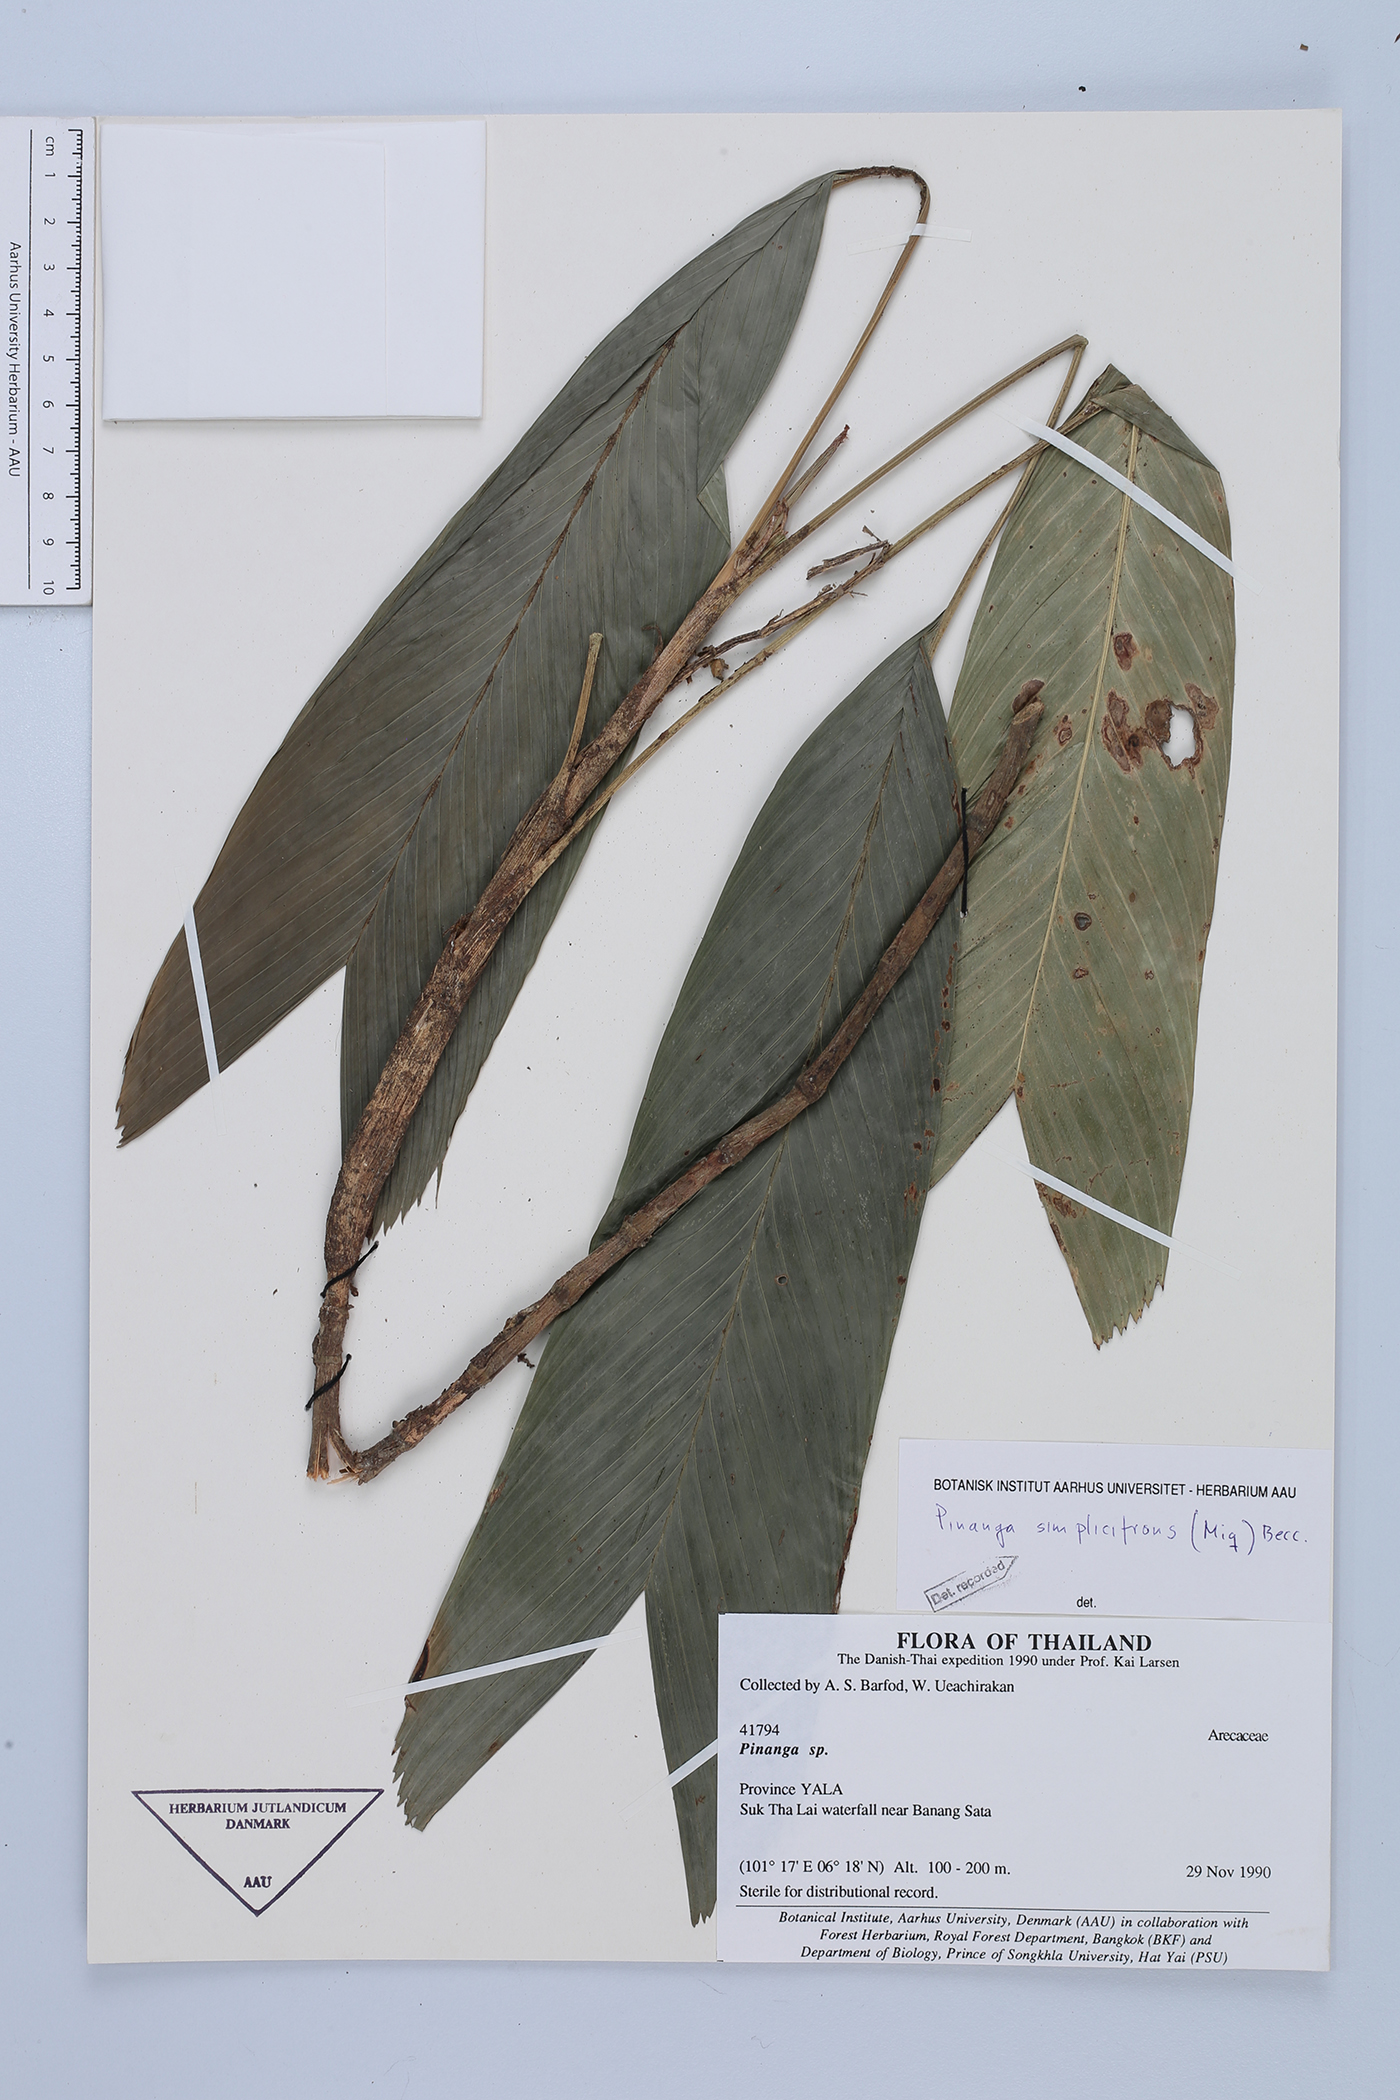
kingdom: Plantae
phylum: Tracheophyta
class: Liliopsida
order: Arecales
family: Arecaceae
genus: Pinanga
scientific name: Pinanga simplicifrons
